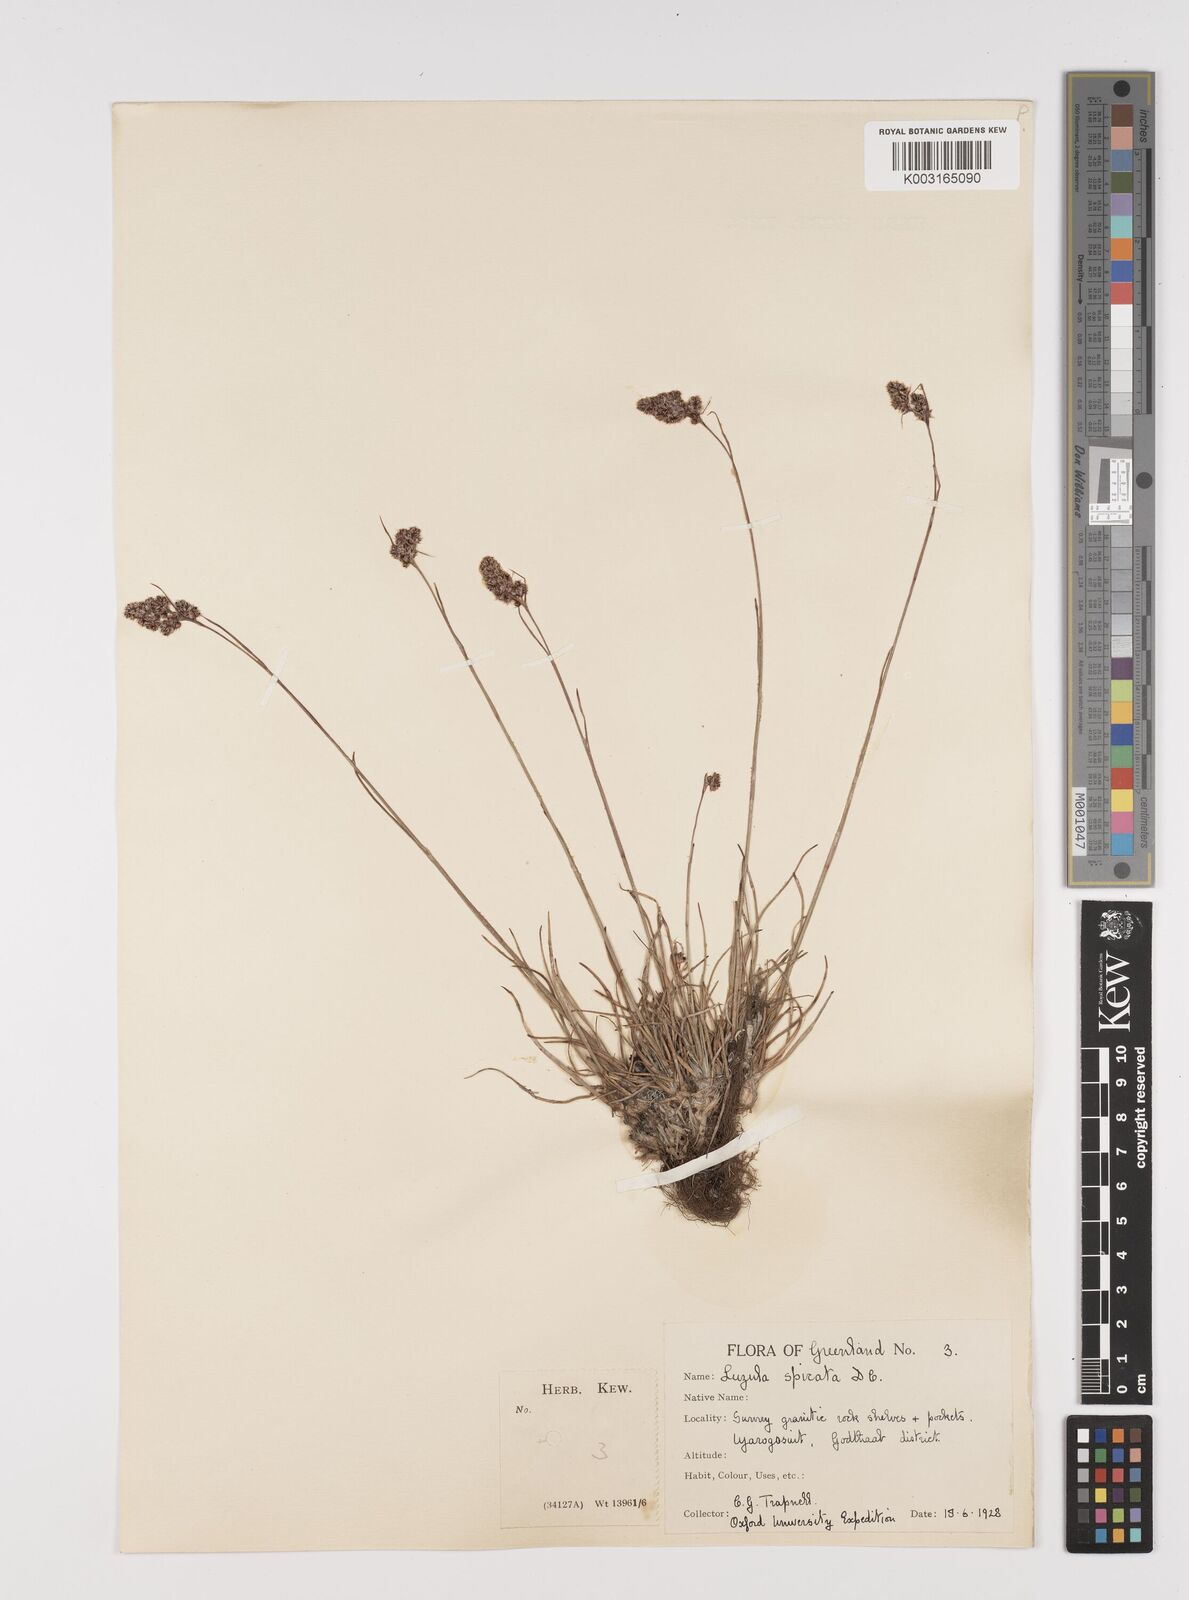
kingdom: Plantae
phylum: Tracheophyta
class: Liliopsida
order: Poales
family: Juncaceae
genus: Luzula
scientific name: Luzula spicata
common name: Spiked wood-rush
